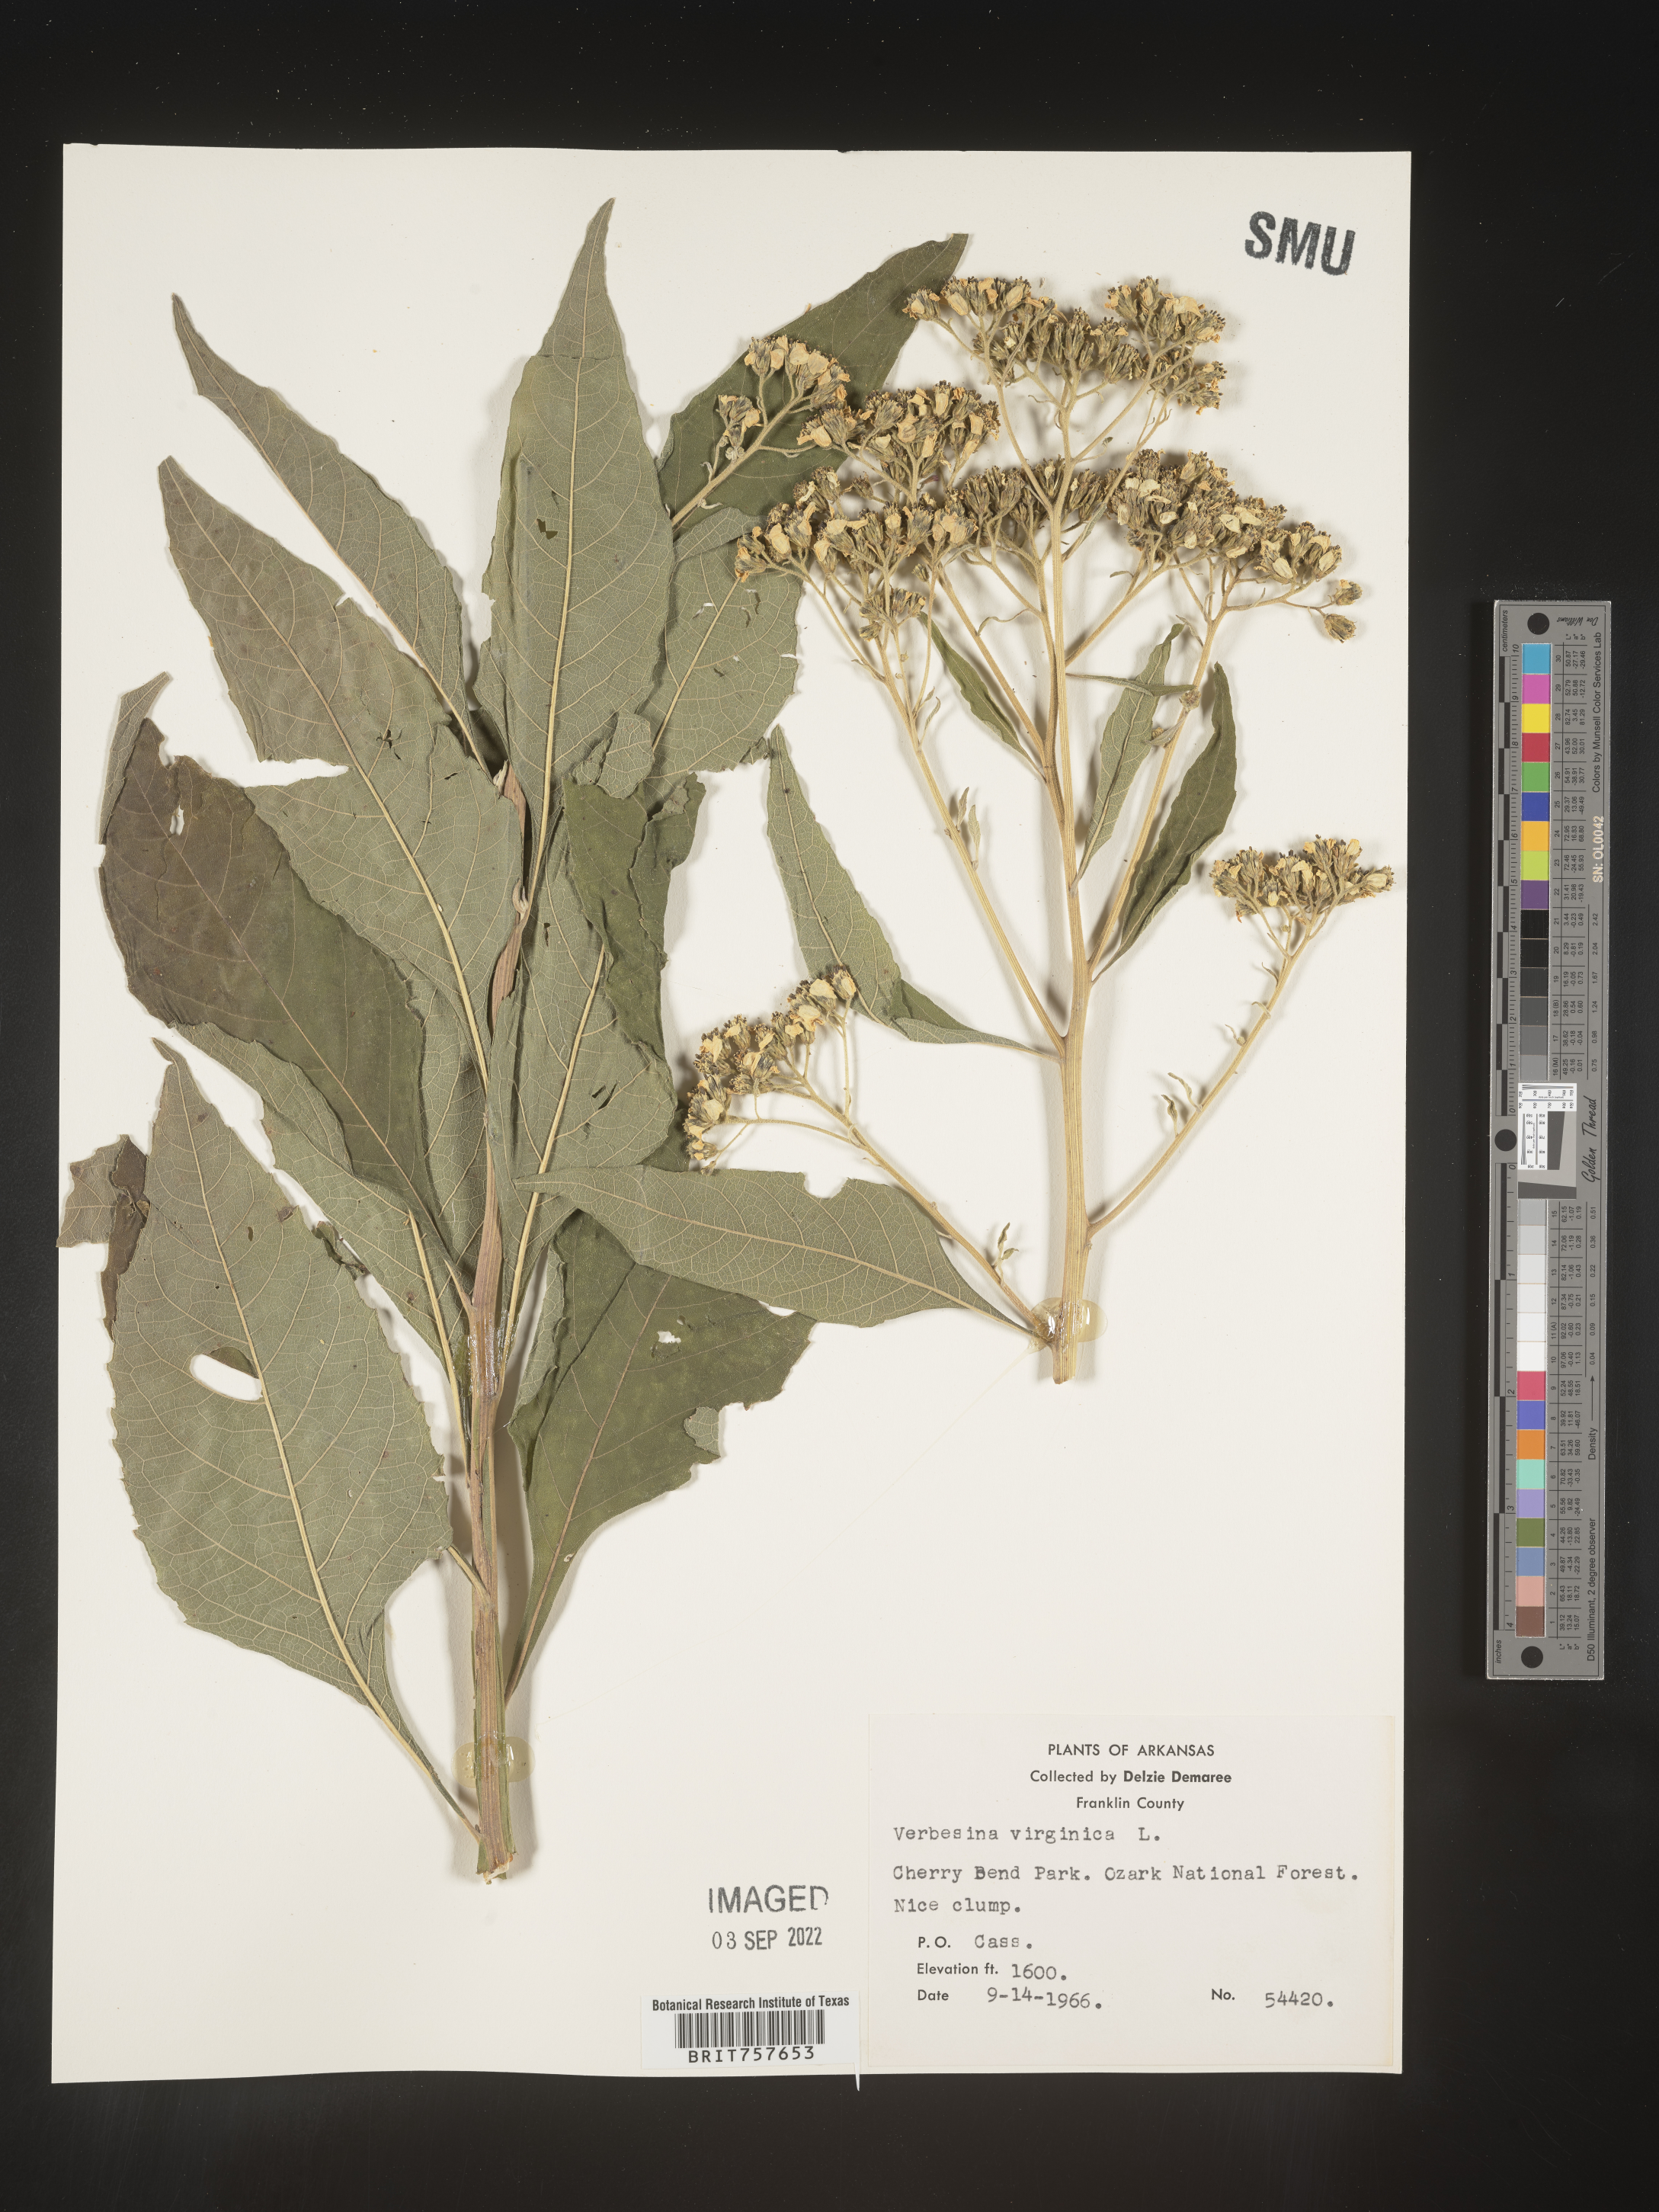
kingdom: Plantae
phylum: Tracheophyta
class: Magnoliopsida
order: Asterales
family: Asteraceae
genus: Verbesina
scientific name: Verbesina virginica
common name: Frostweed
